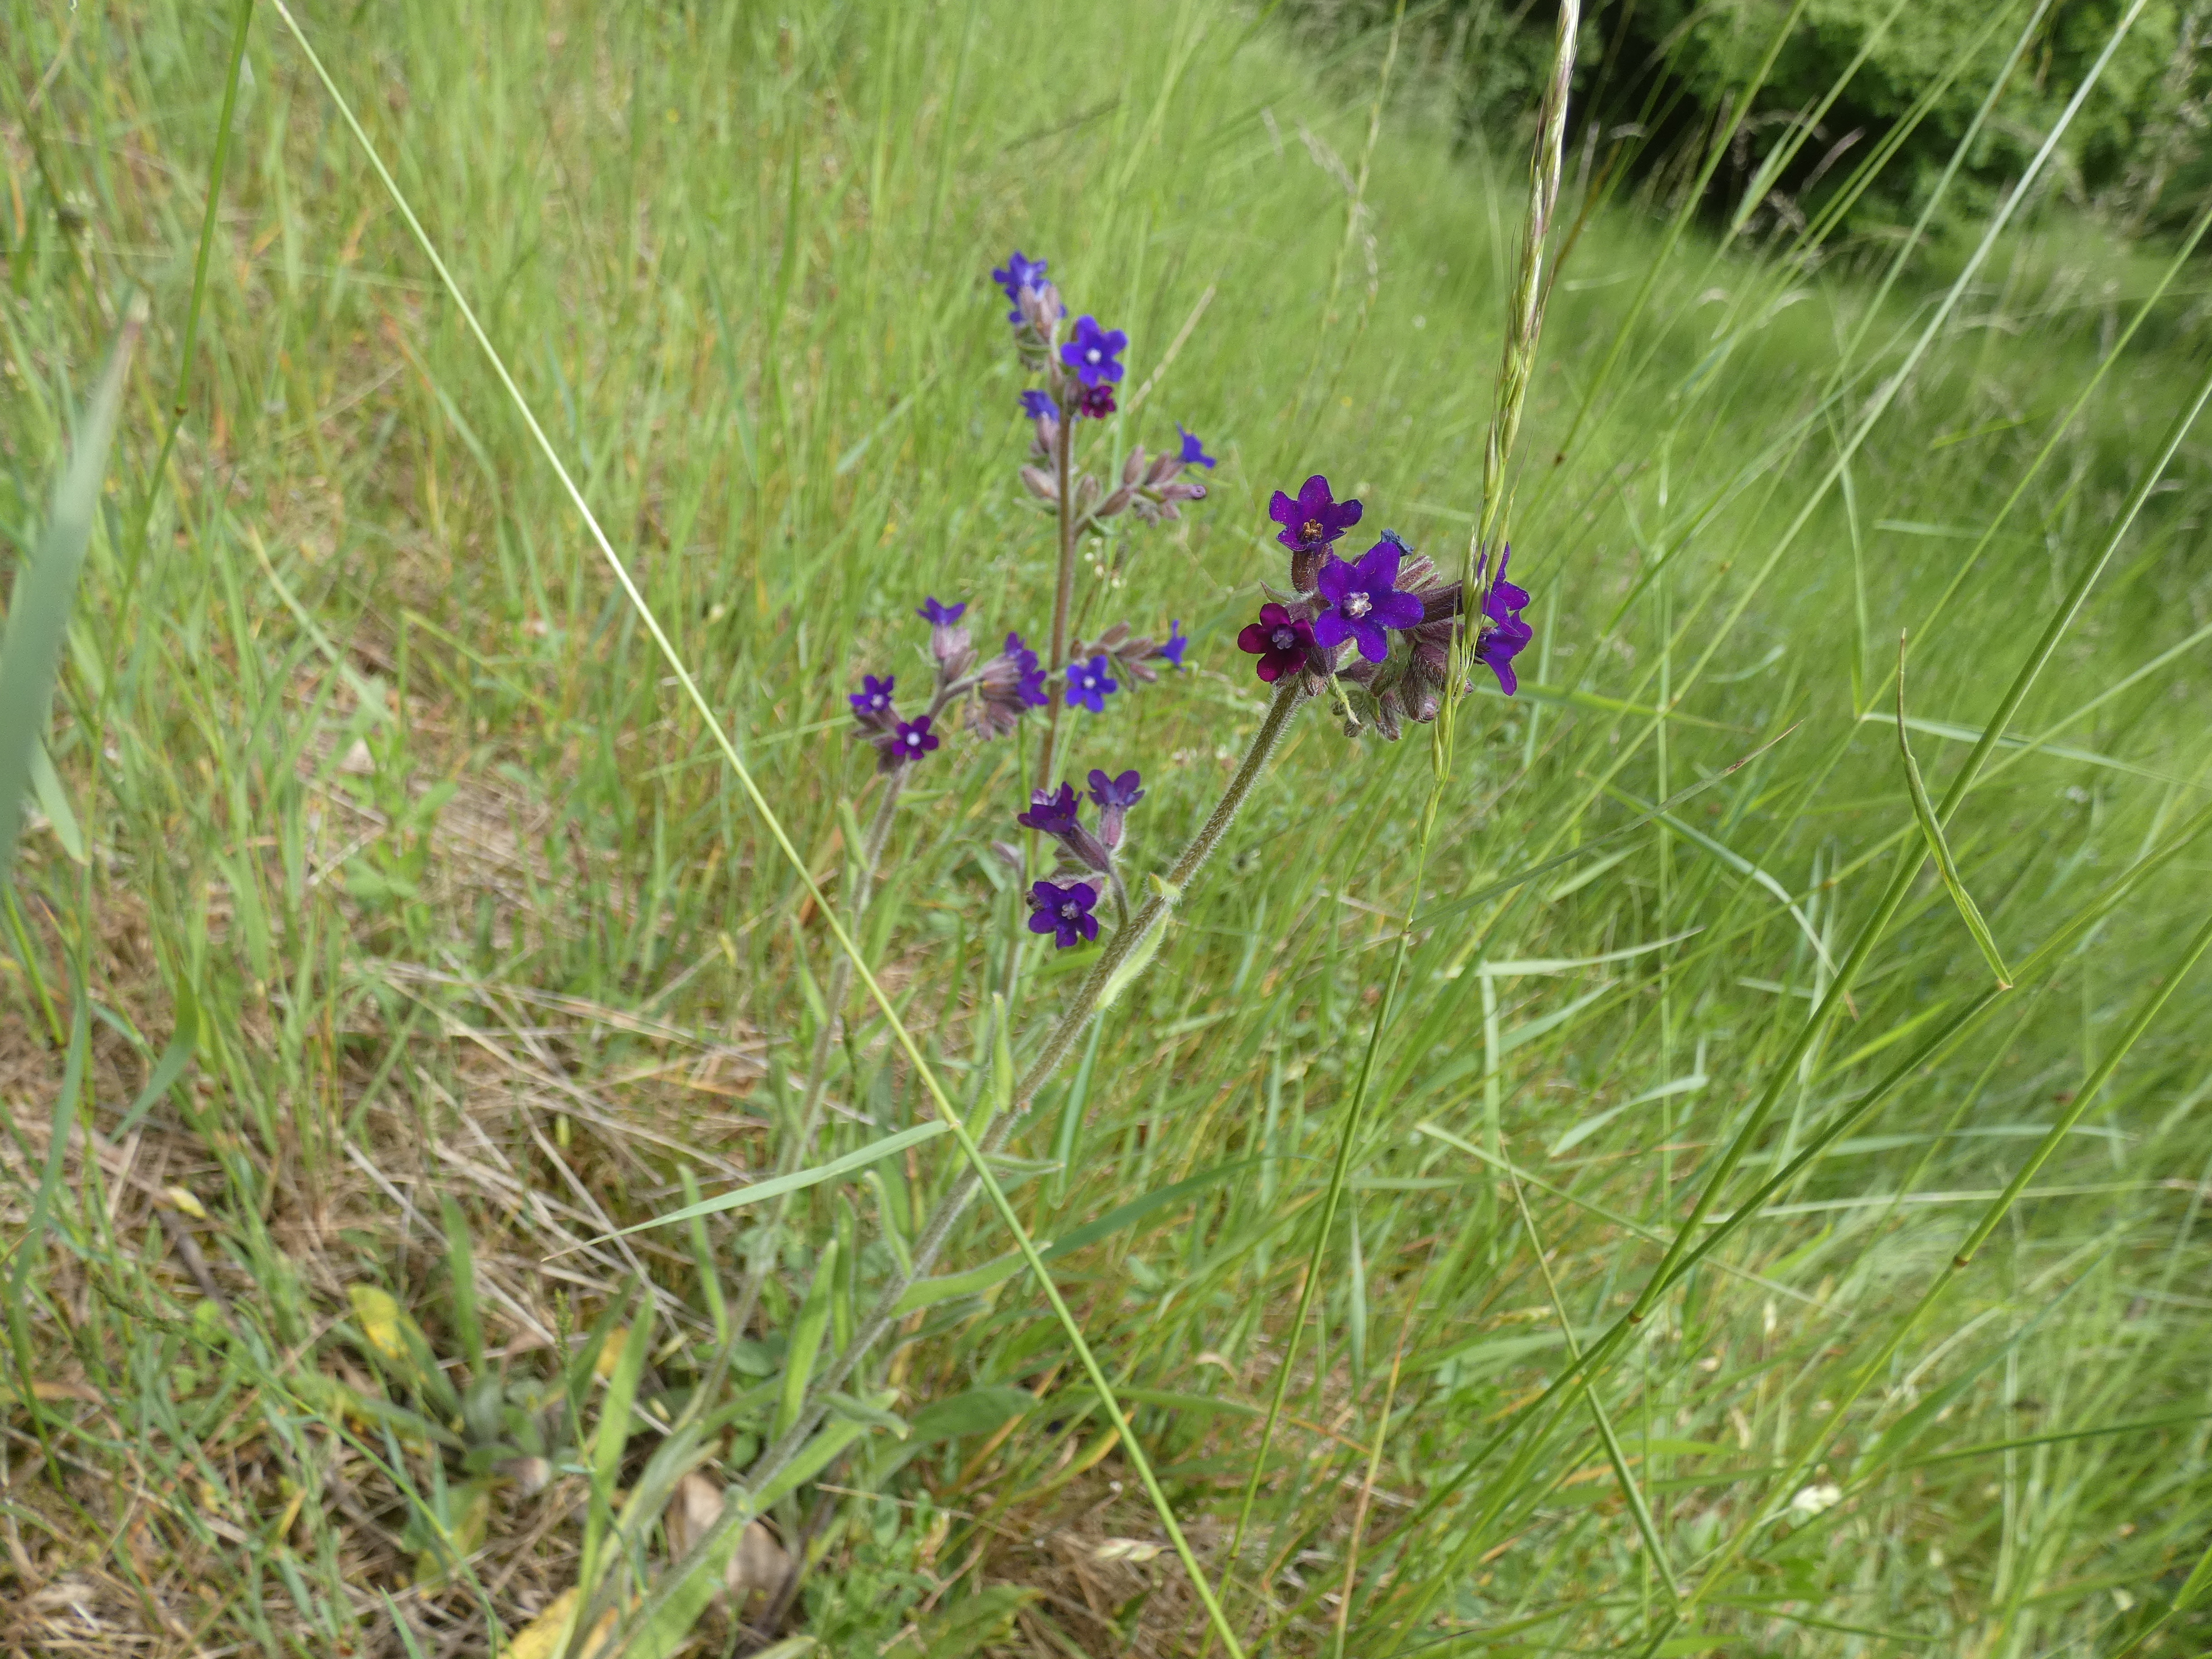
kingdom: Plantae
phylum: Tracheophyta
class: Magnoliopsida
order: Boraginales
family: Boraginaceae
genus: Anchusa
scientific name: Anchusa officinalis
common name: Læge-oksetunge
